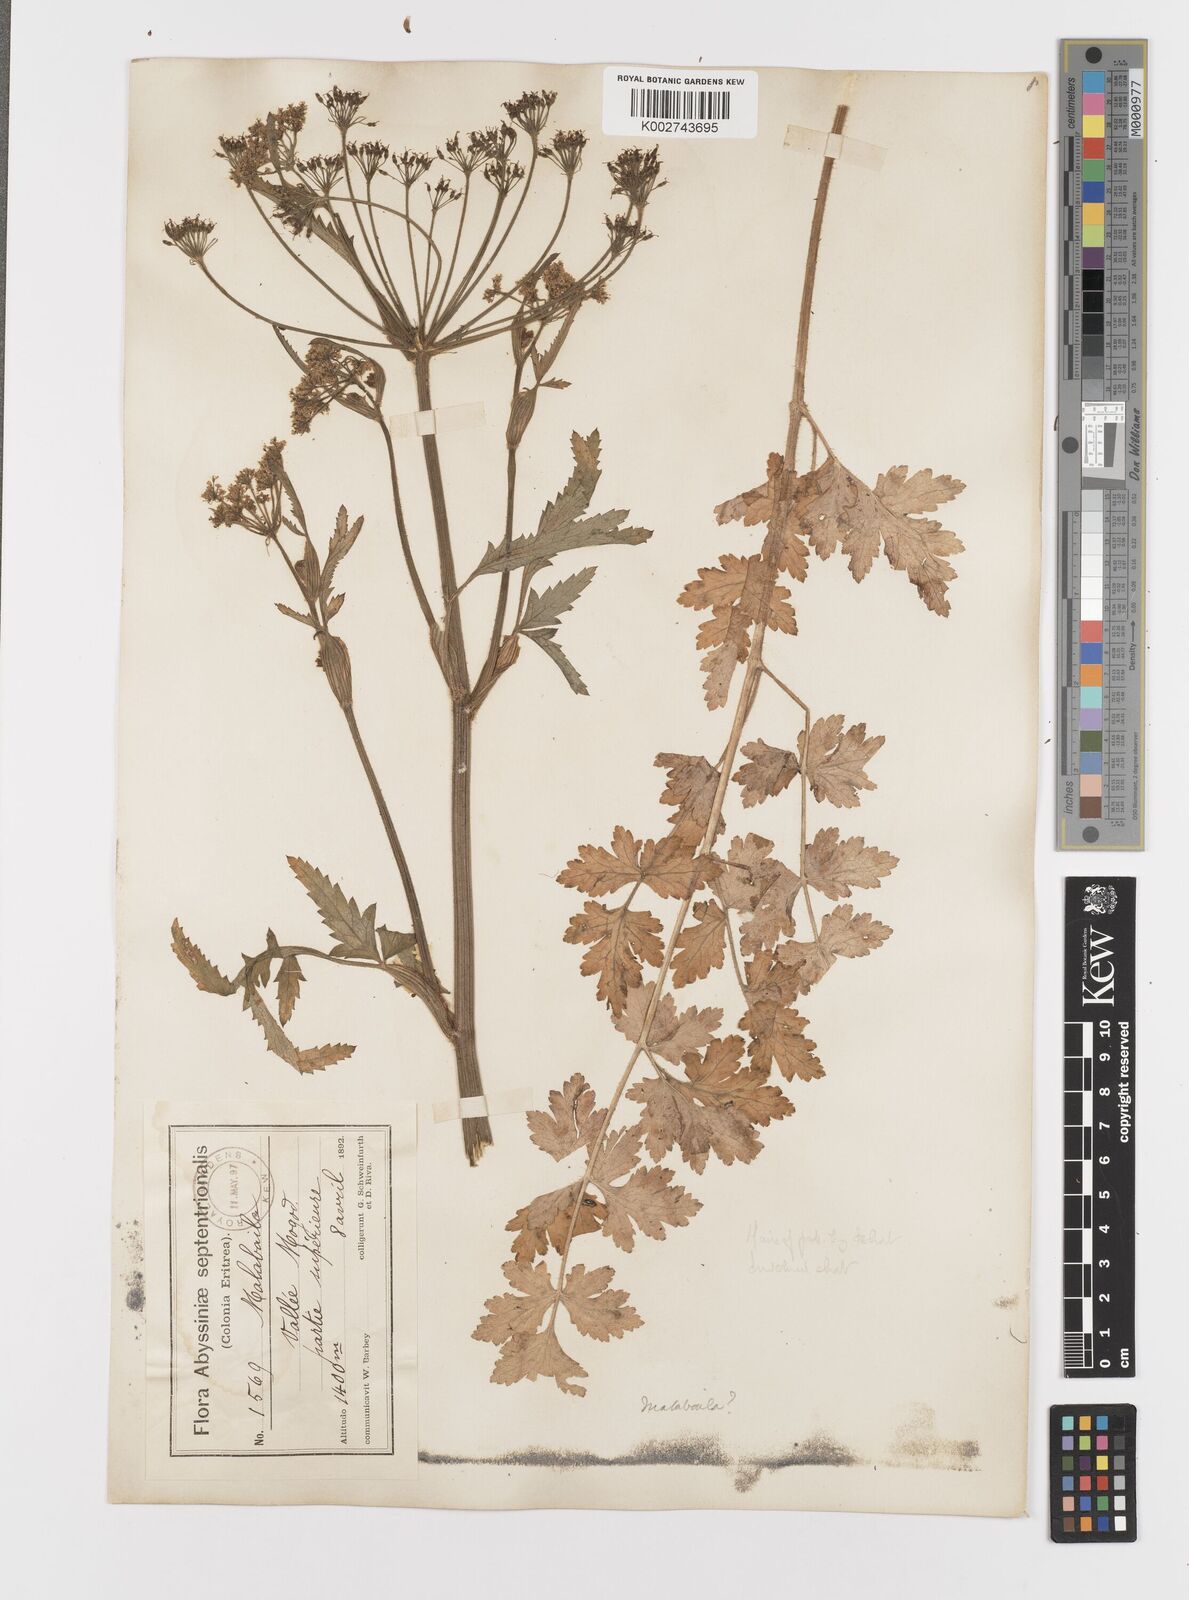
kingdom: Plantae
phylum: Tracheophyta
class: Magnoliopsida
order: Apiales
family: Apiaceae
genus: Heracleum
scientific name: Heracleum abyssinicum
